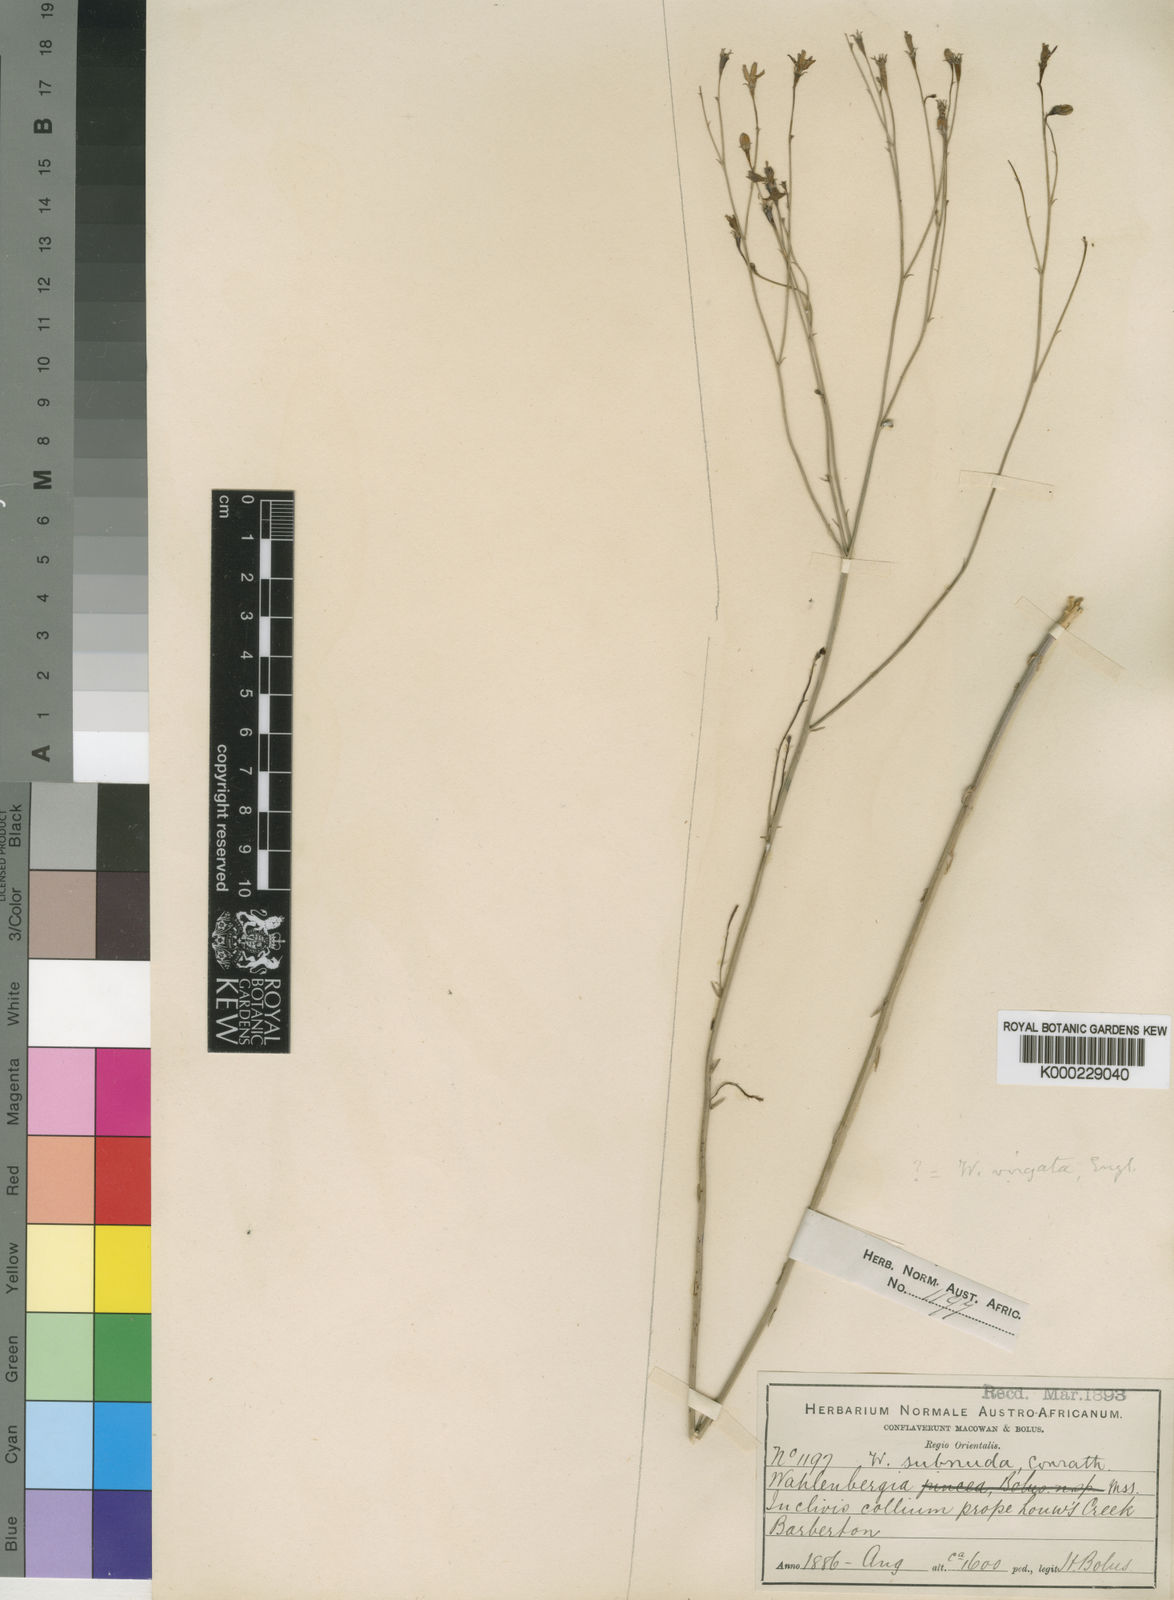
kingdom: Plantae
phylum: Tracheophyta
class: Magnoliopsida
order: Asterales
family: Campanulaceae
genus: Wahlenbergia
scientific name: Wahlenbergia virgata
